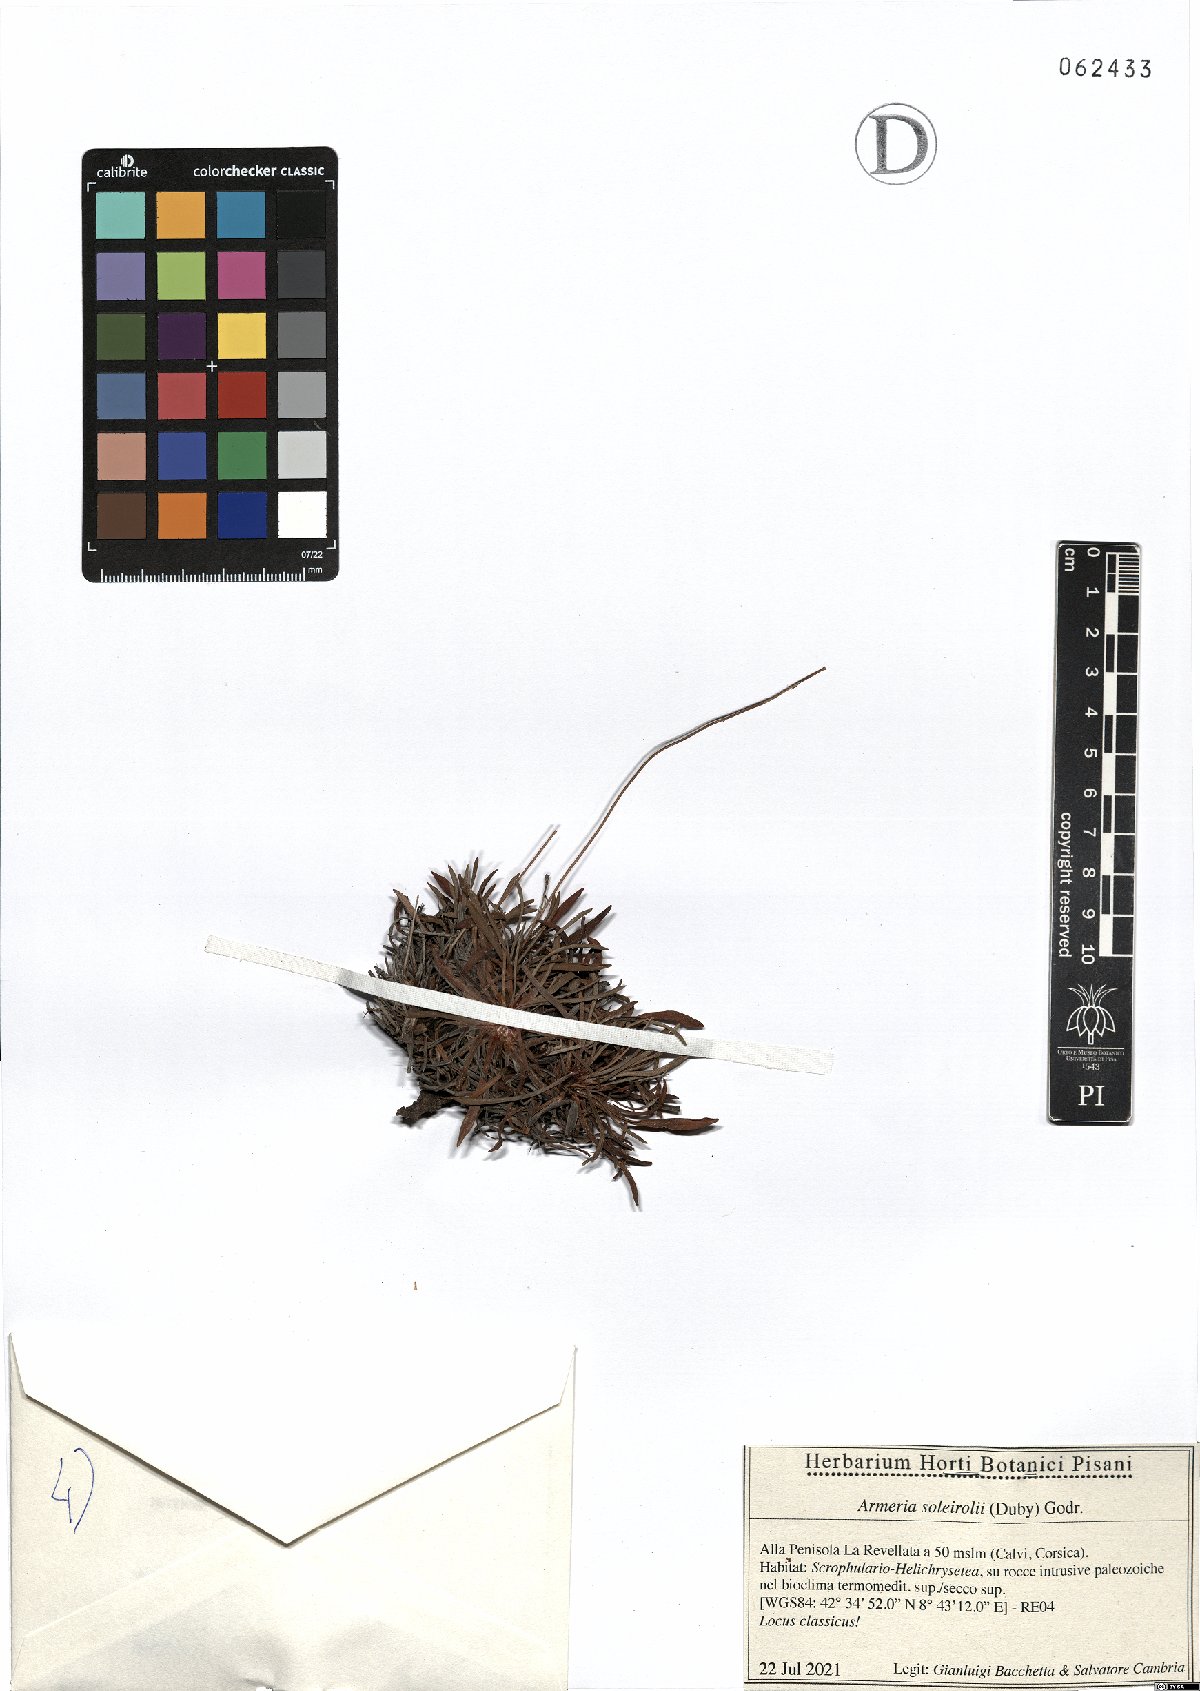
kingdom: Plantae
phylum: Tracheophyta
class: Magnoliopsida
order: Caryophyllales
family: Plumbaginaceae
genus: Armeria
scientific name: Armeria soleirolii
